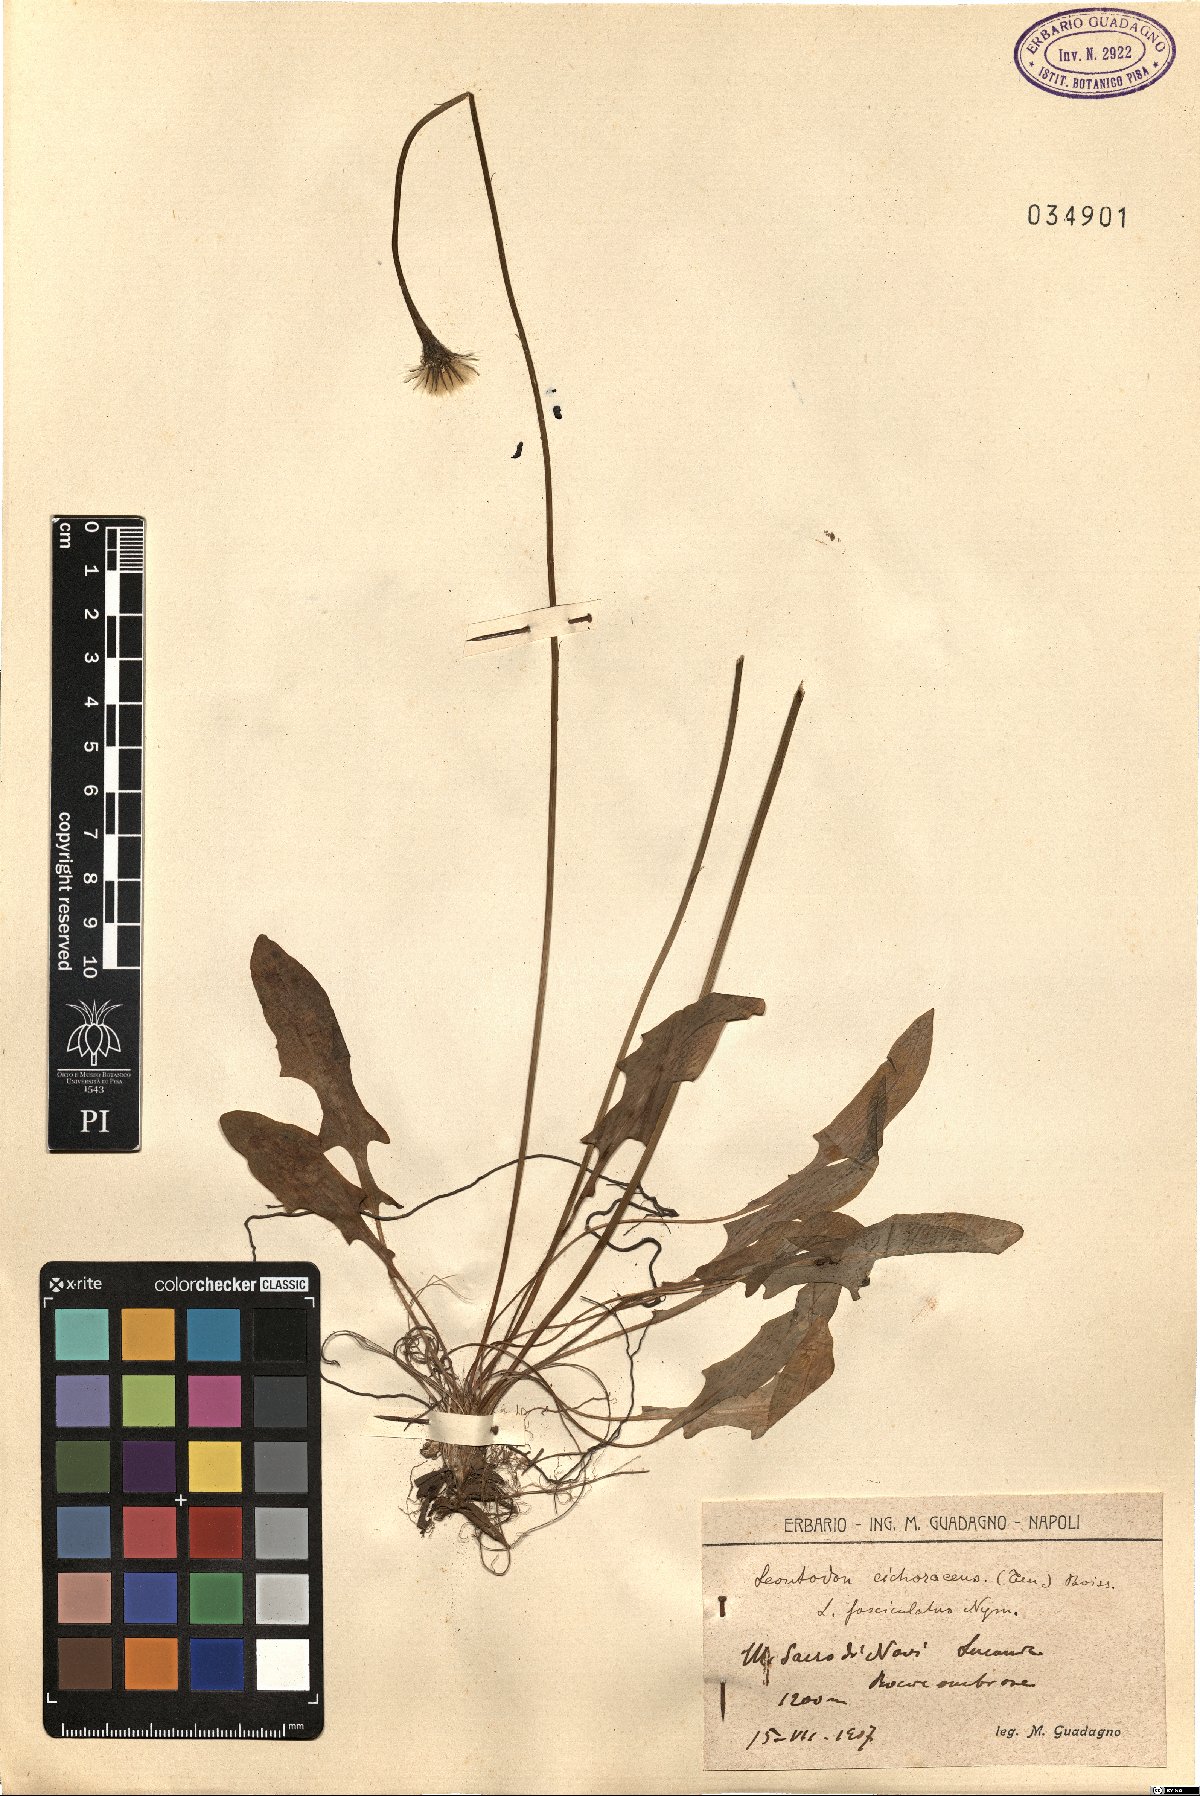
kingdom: Plantae
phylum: Tracheophyta
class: Magnoliopsida
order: Asterales
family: Asteraceae
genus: Scorzoneroides
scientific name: Scorzoneroides cichoriacea
